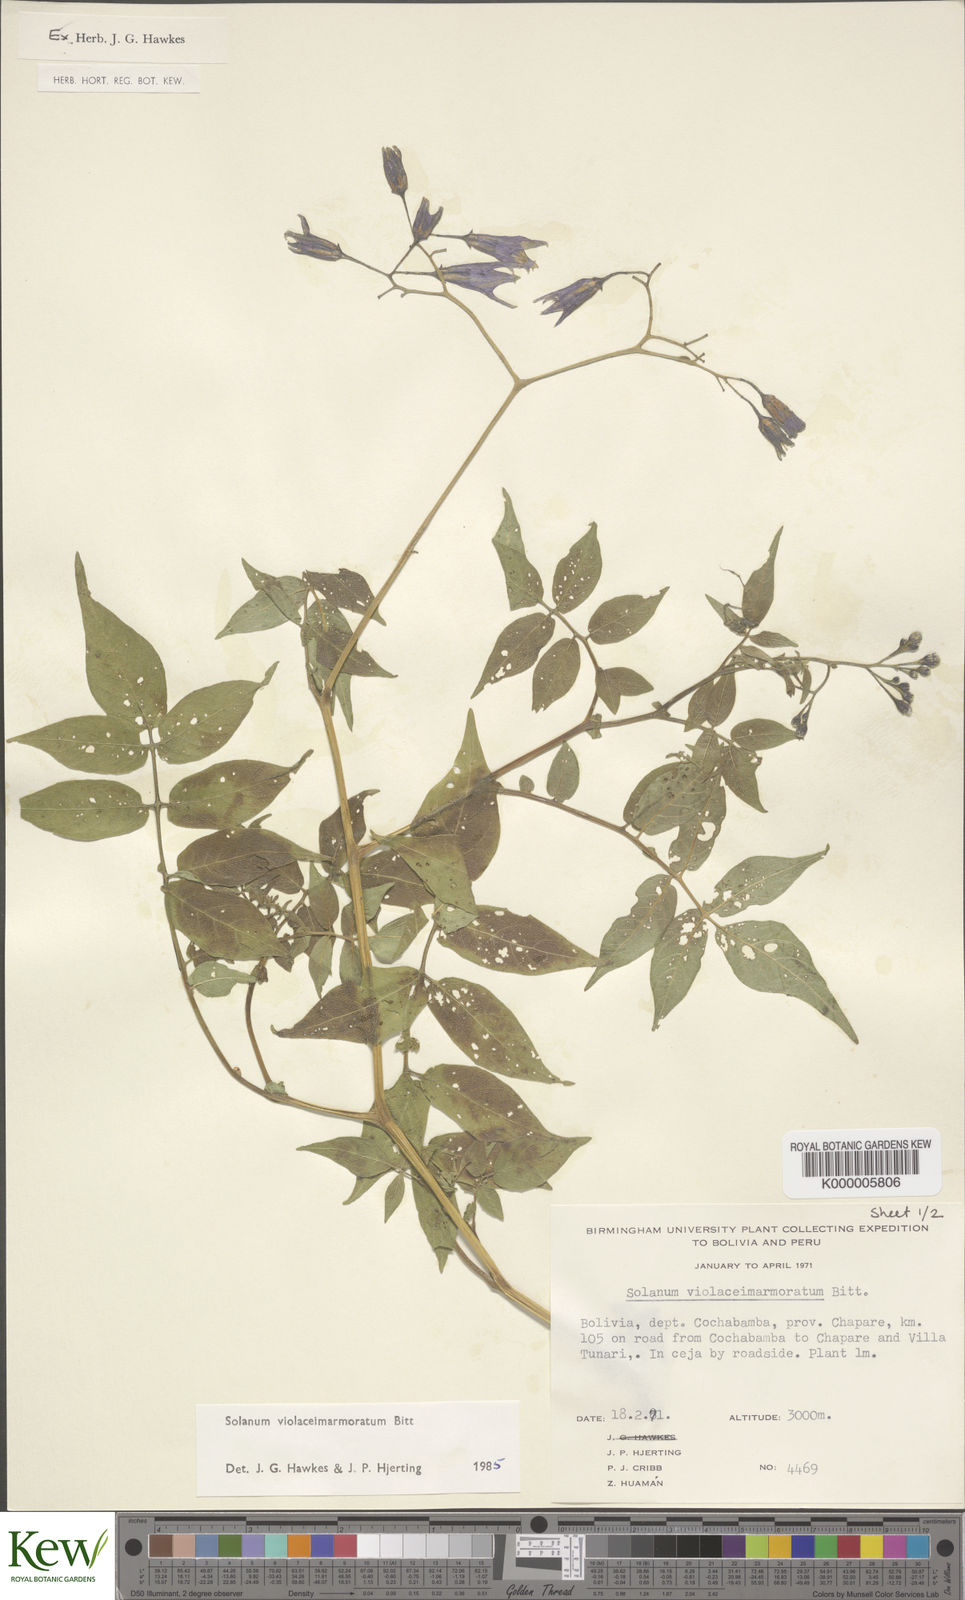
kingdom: Plantae
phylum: Tracheophyta
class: Magnoliopsida
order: Solanales
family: Solanaceae
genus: Solanum
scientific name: Solanum violaceimarmoratum
